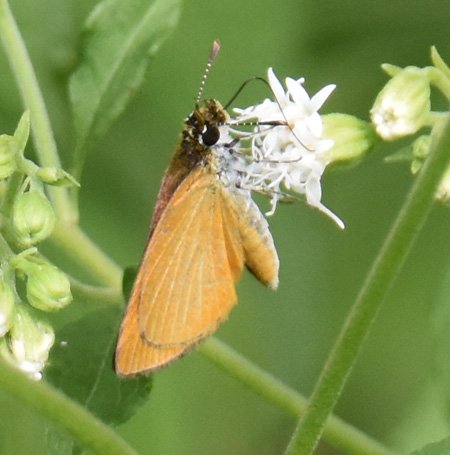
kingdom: Animalia
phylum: Arthropoda
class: Insecta
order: Lepidoptera
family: Hesperiidae
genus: Ancyloxypha
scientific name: Ancyloxypha numitor
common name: Least Skipper
